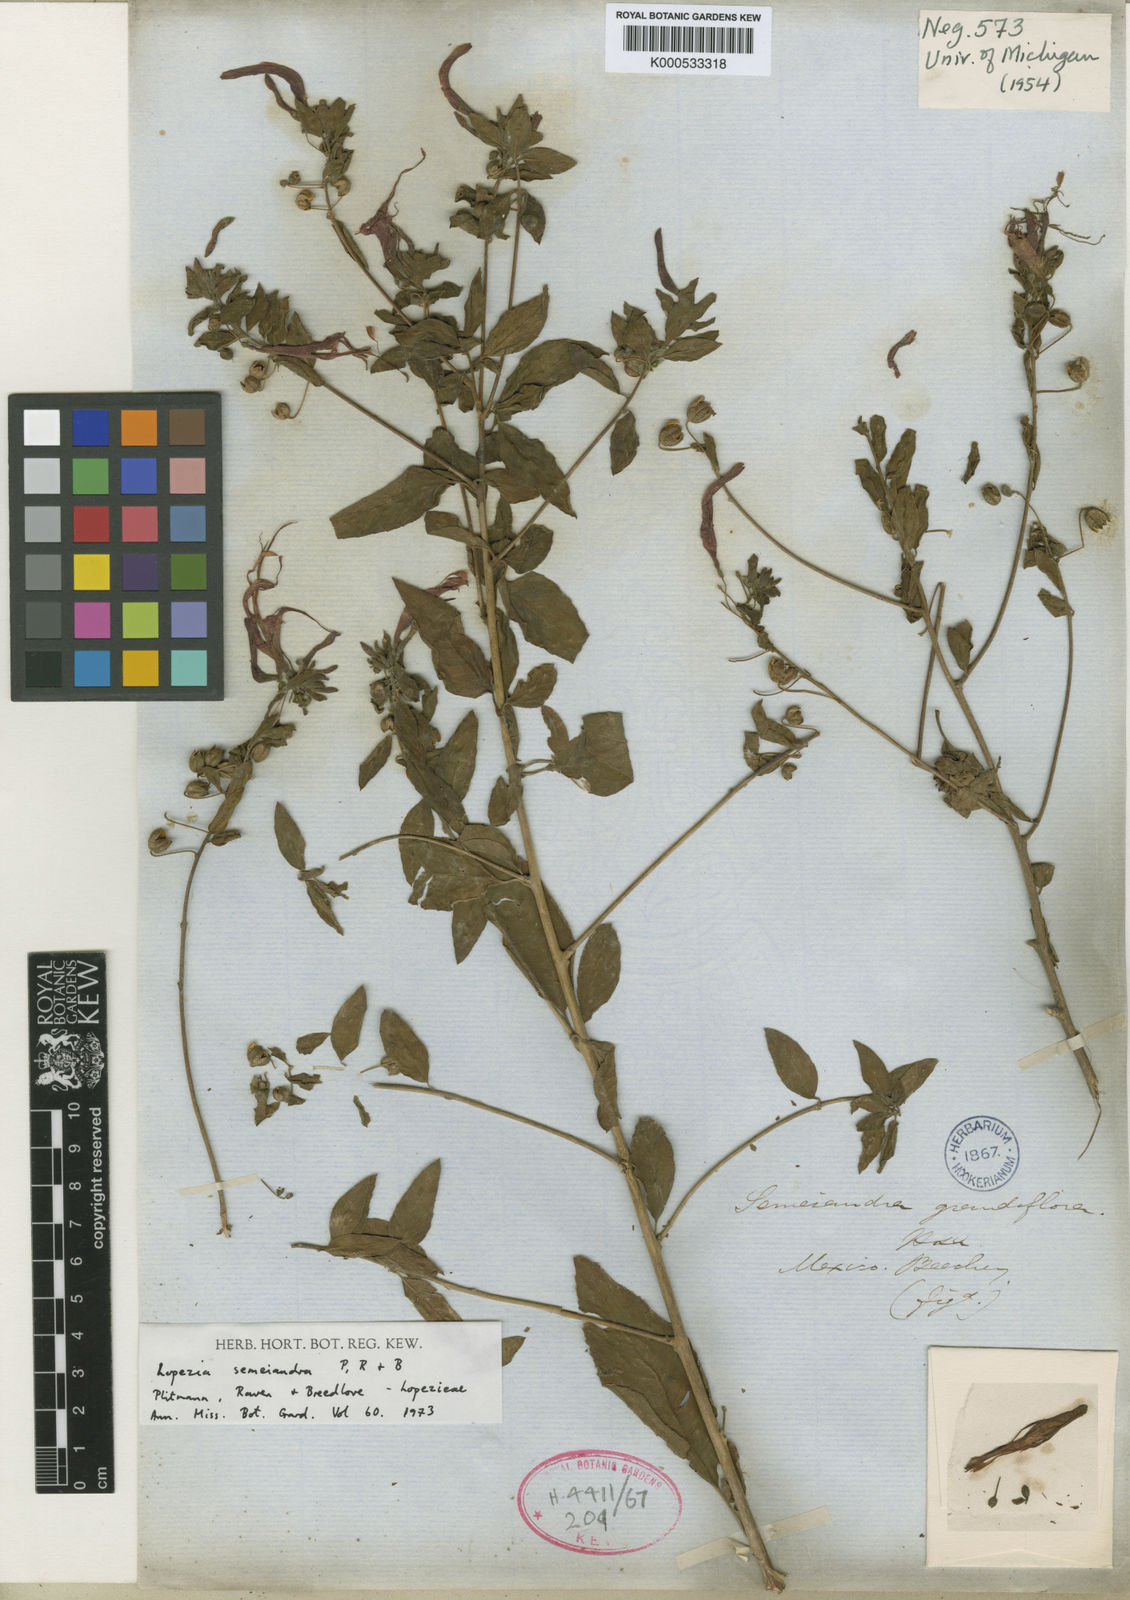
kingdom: Plantae
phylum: Tracheophyta
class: Magnoliopsida
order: Myrtales
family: Onagraceae
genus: Lopezia
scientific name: Lopezia semeiandra
